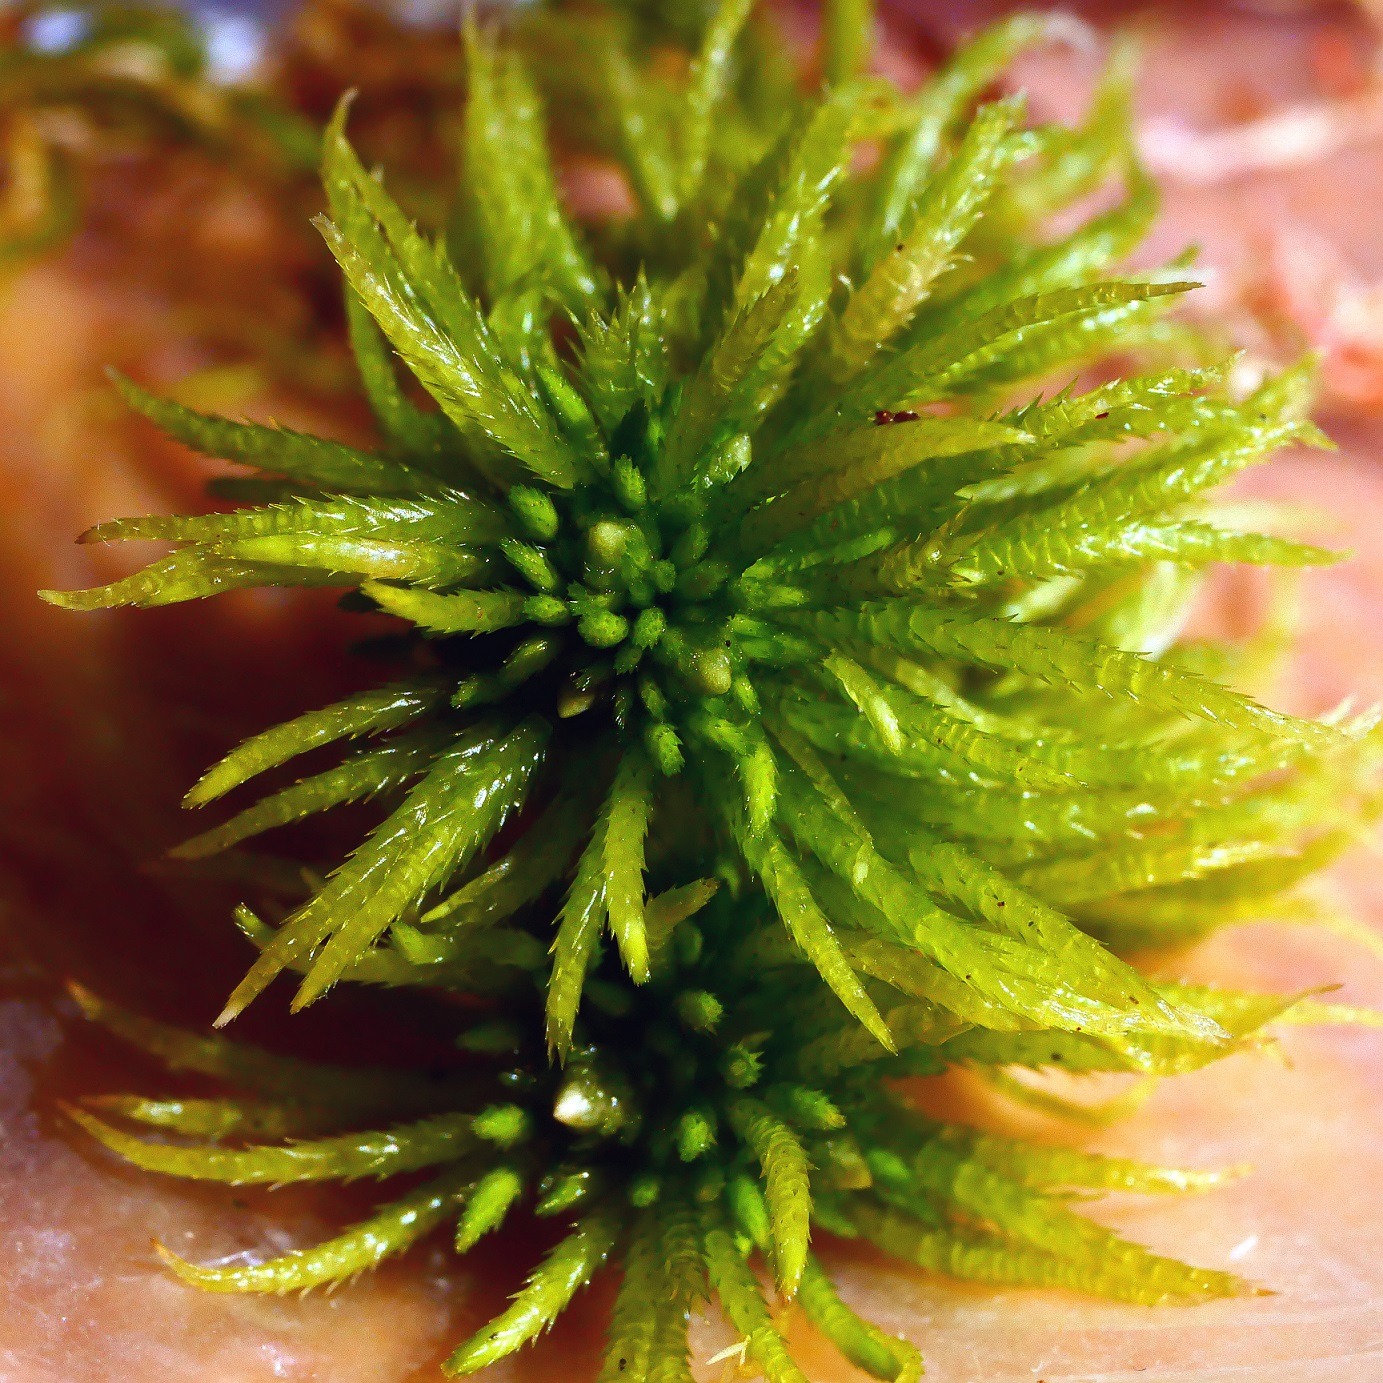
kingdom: Plantae
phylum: Bryophyta
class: Sphagnopsida
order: Sphagnales
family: Sphagnaceae
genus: Sphagnum
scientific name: Sphagnum riparium
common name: Kløftet tørvemos
